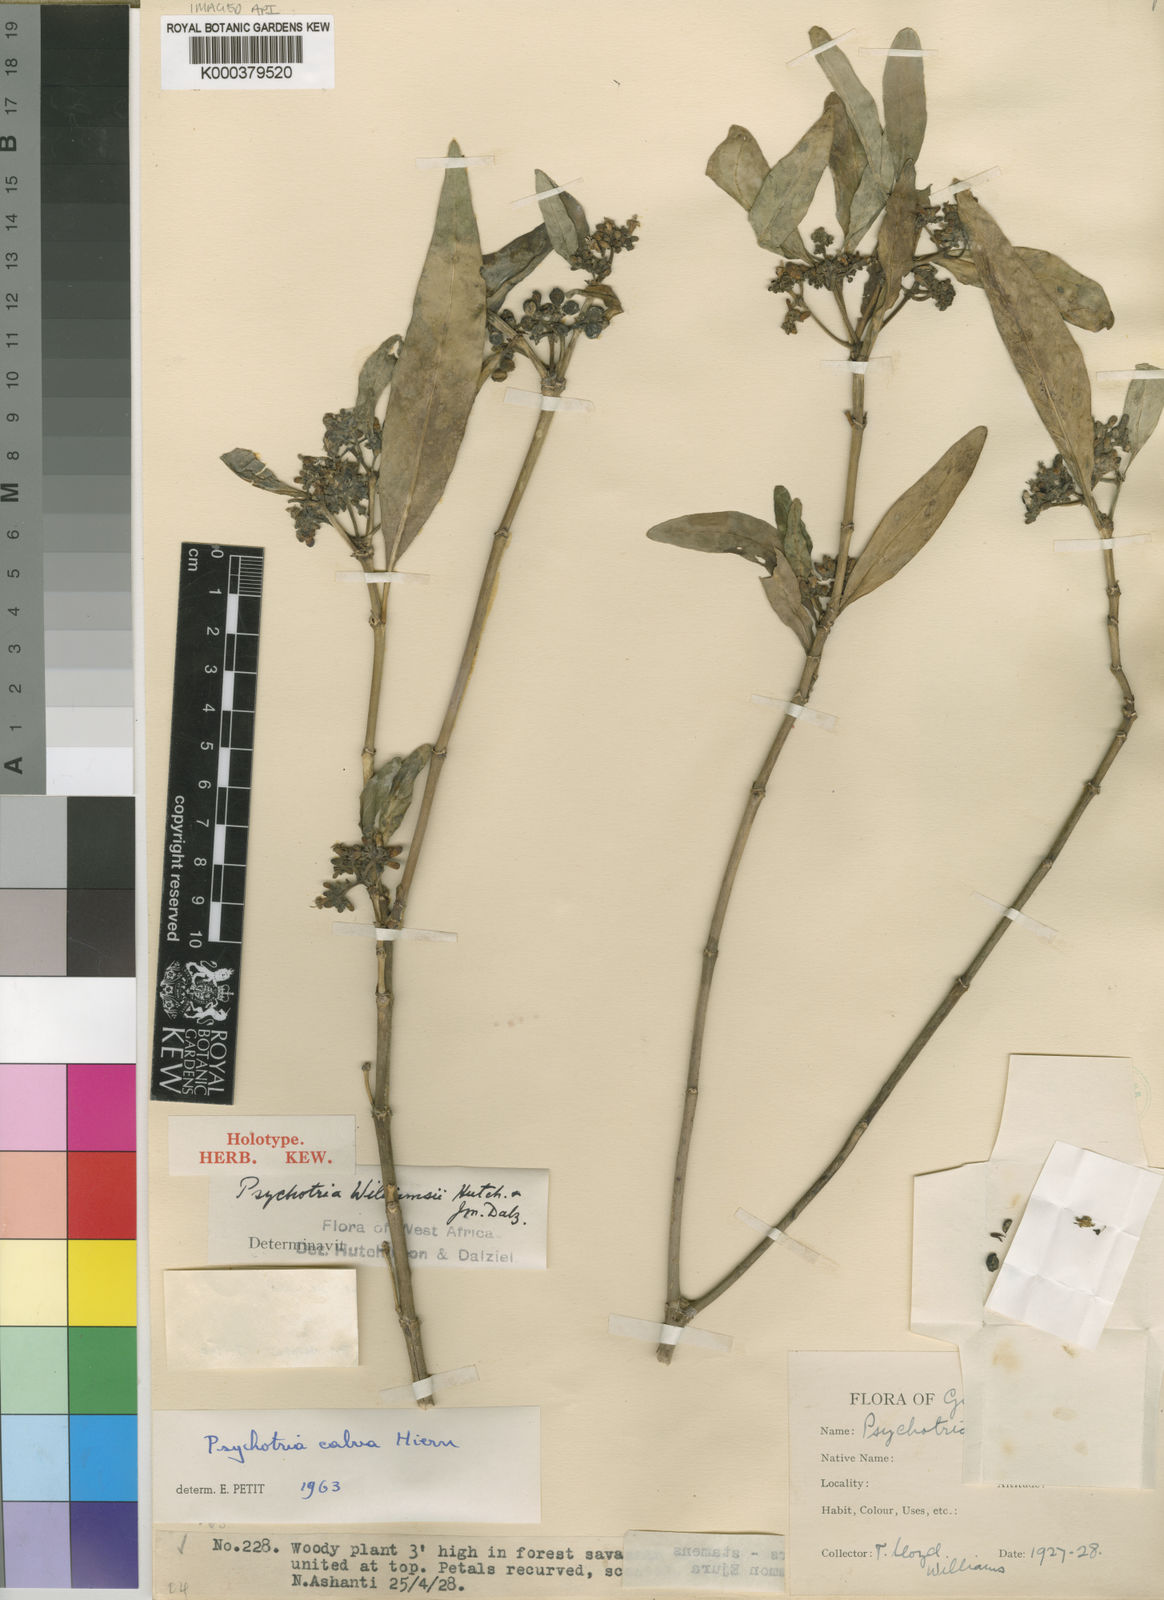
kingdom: Plantae
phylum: Tracheophyta
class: Magnoliopsida
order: Gentianales
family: Rubiaceae
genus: Psychotria
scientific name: Psychotria calva
